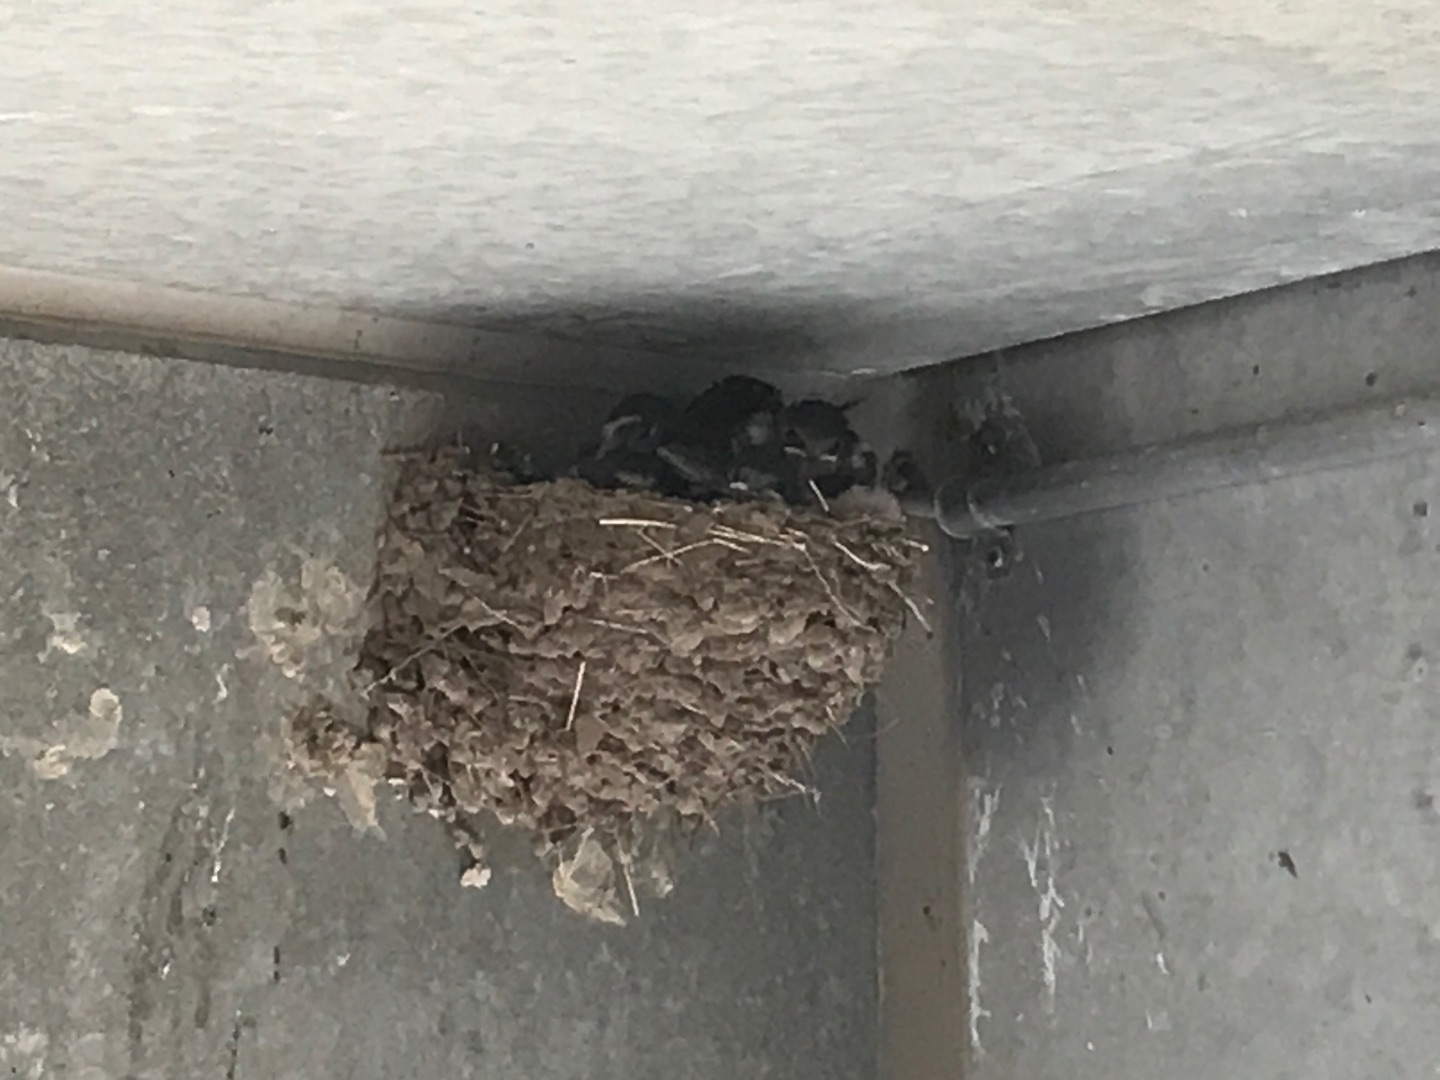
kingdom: Animalia
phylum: Chordata
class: Aves
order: Passeriformes
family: Hirundinidae
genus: Hirundo
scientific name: Hirundo rustica
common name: Landsvale
